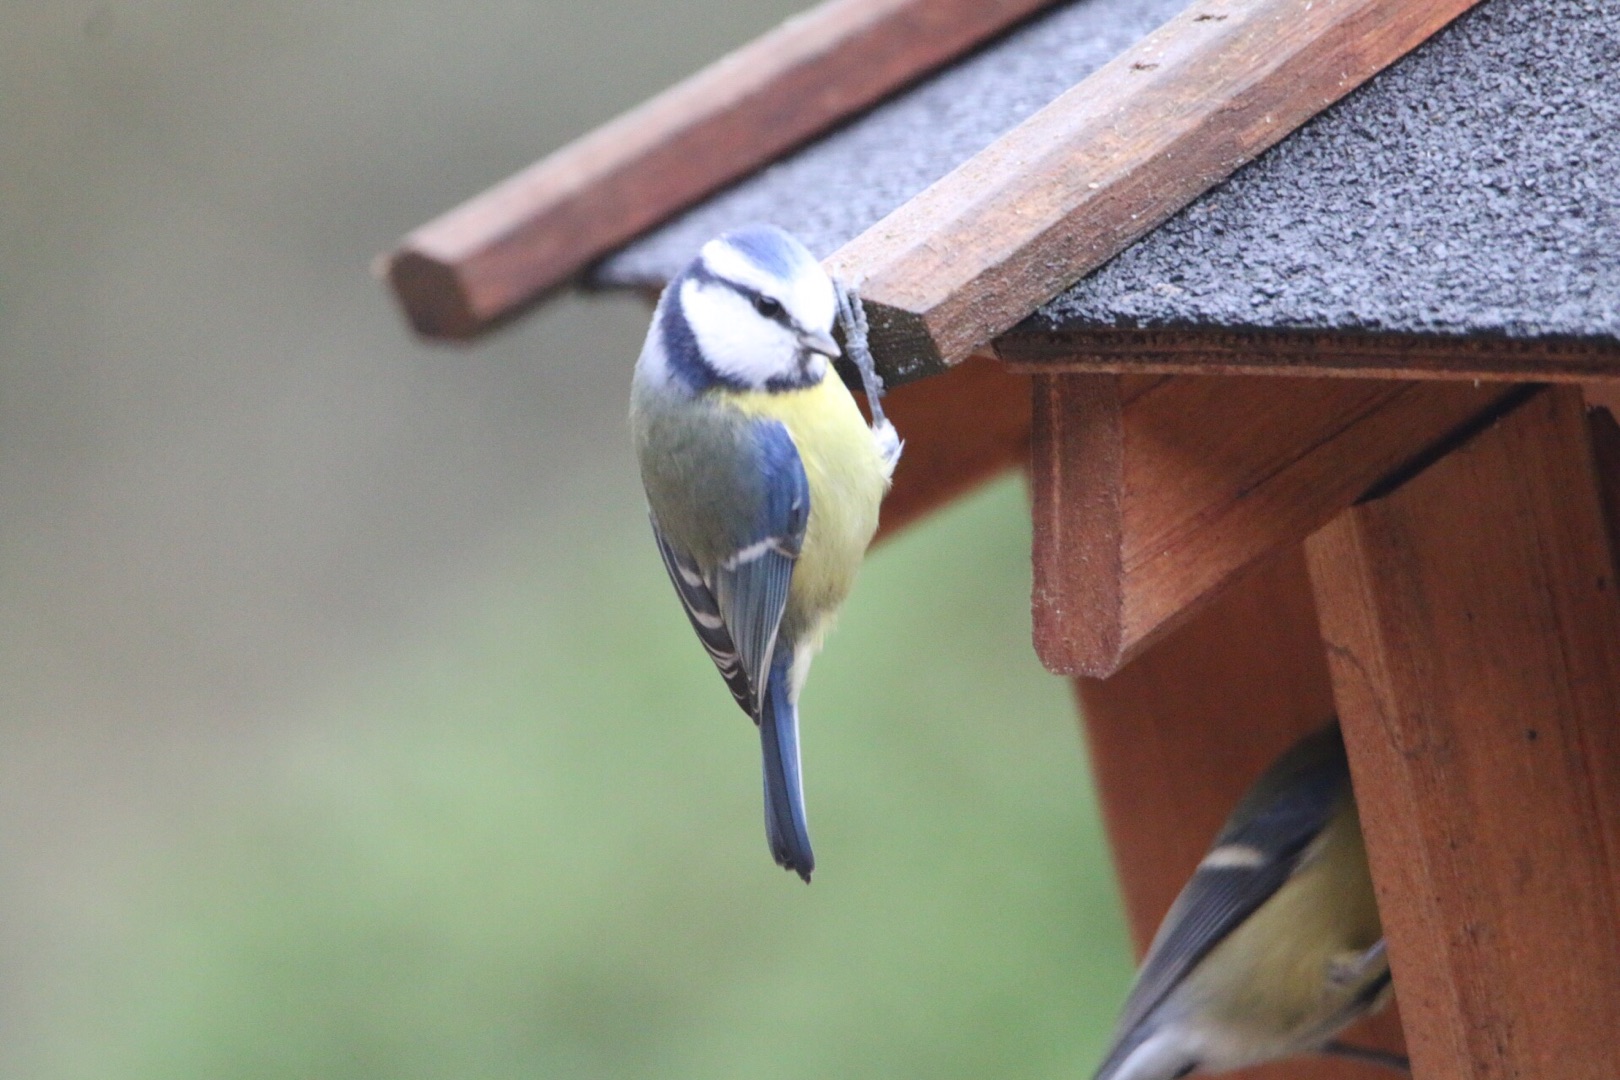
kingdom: Animalia
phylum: Chordata
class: Aves
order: Passeriformes
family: Paridae
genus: Cyanistes
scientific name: Cyanistes caeruleus
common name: Blåmejse
